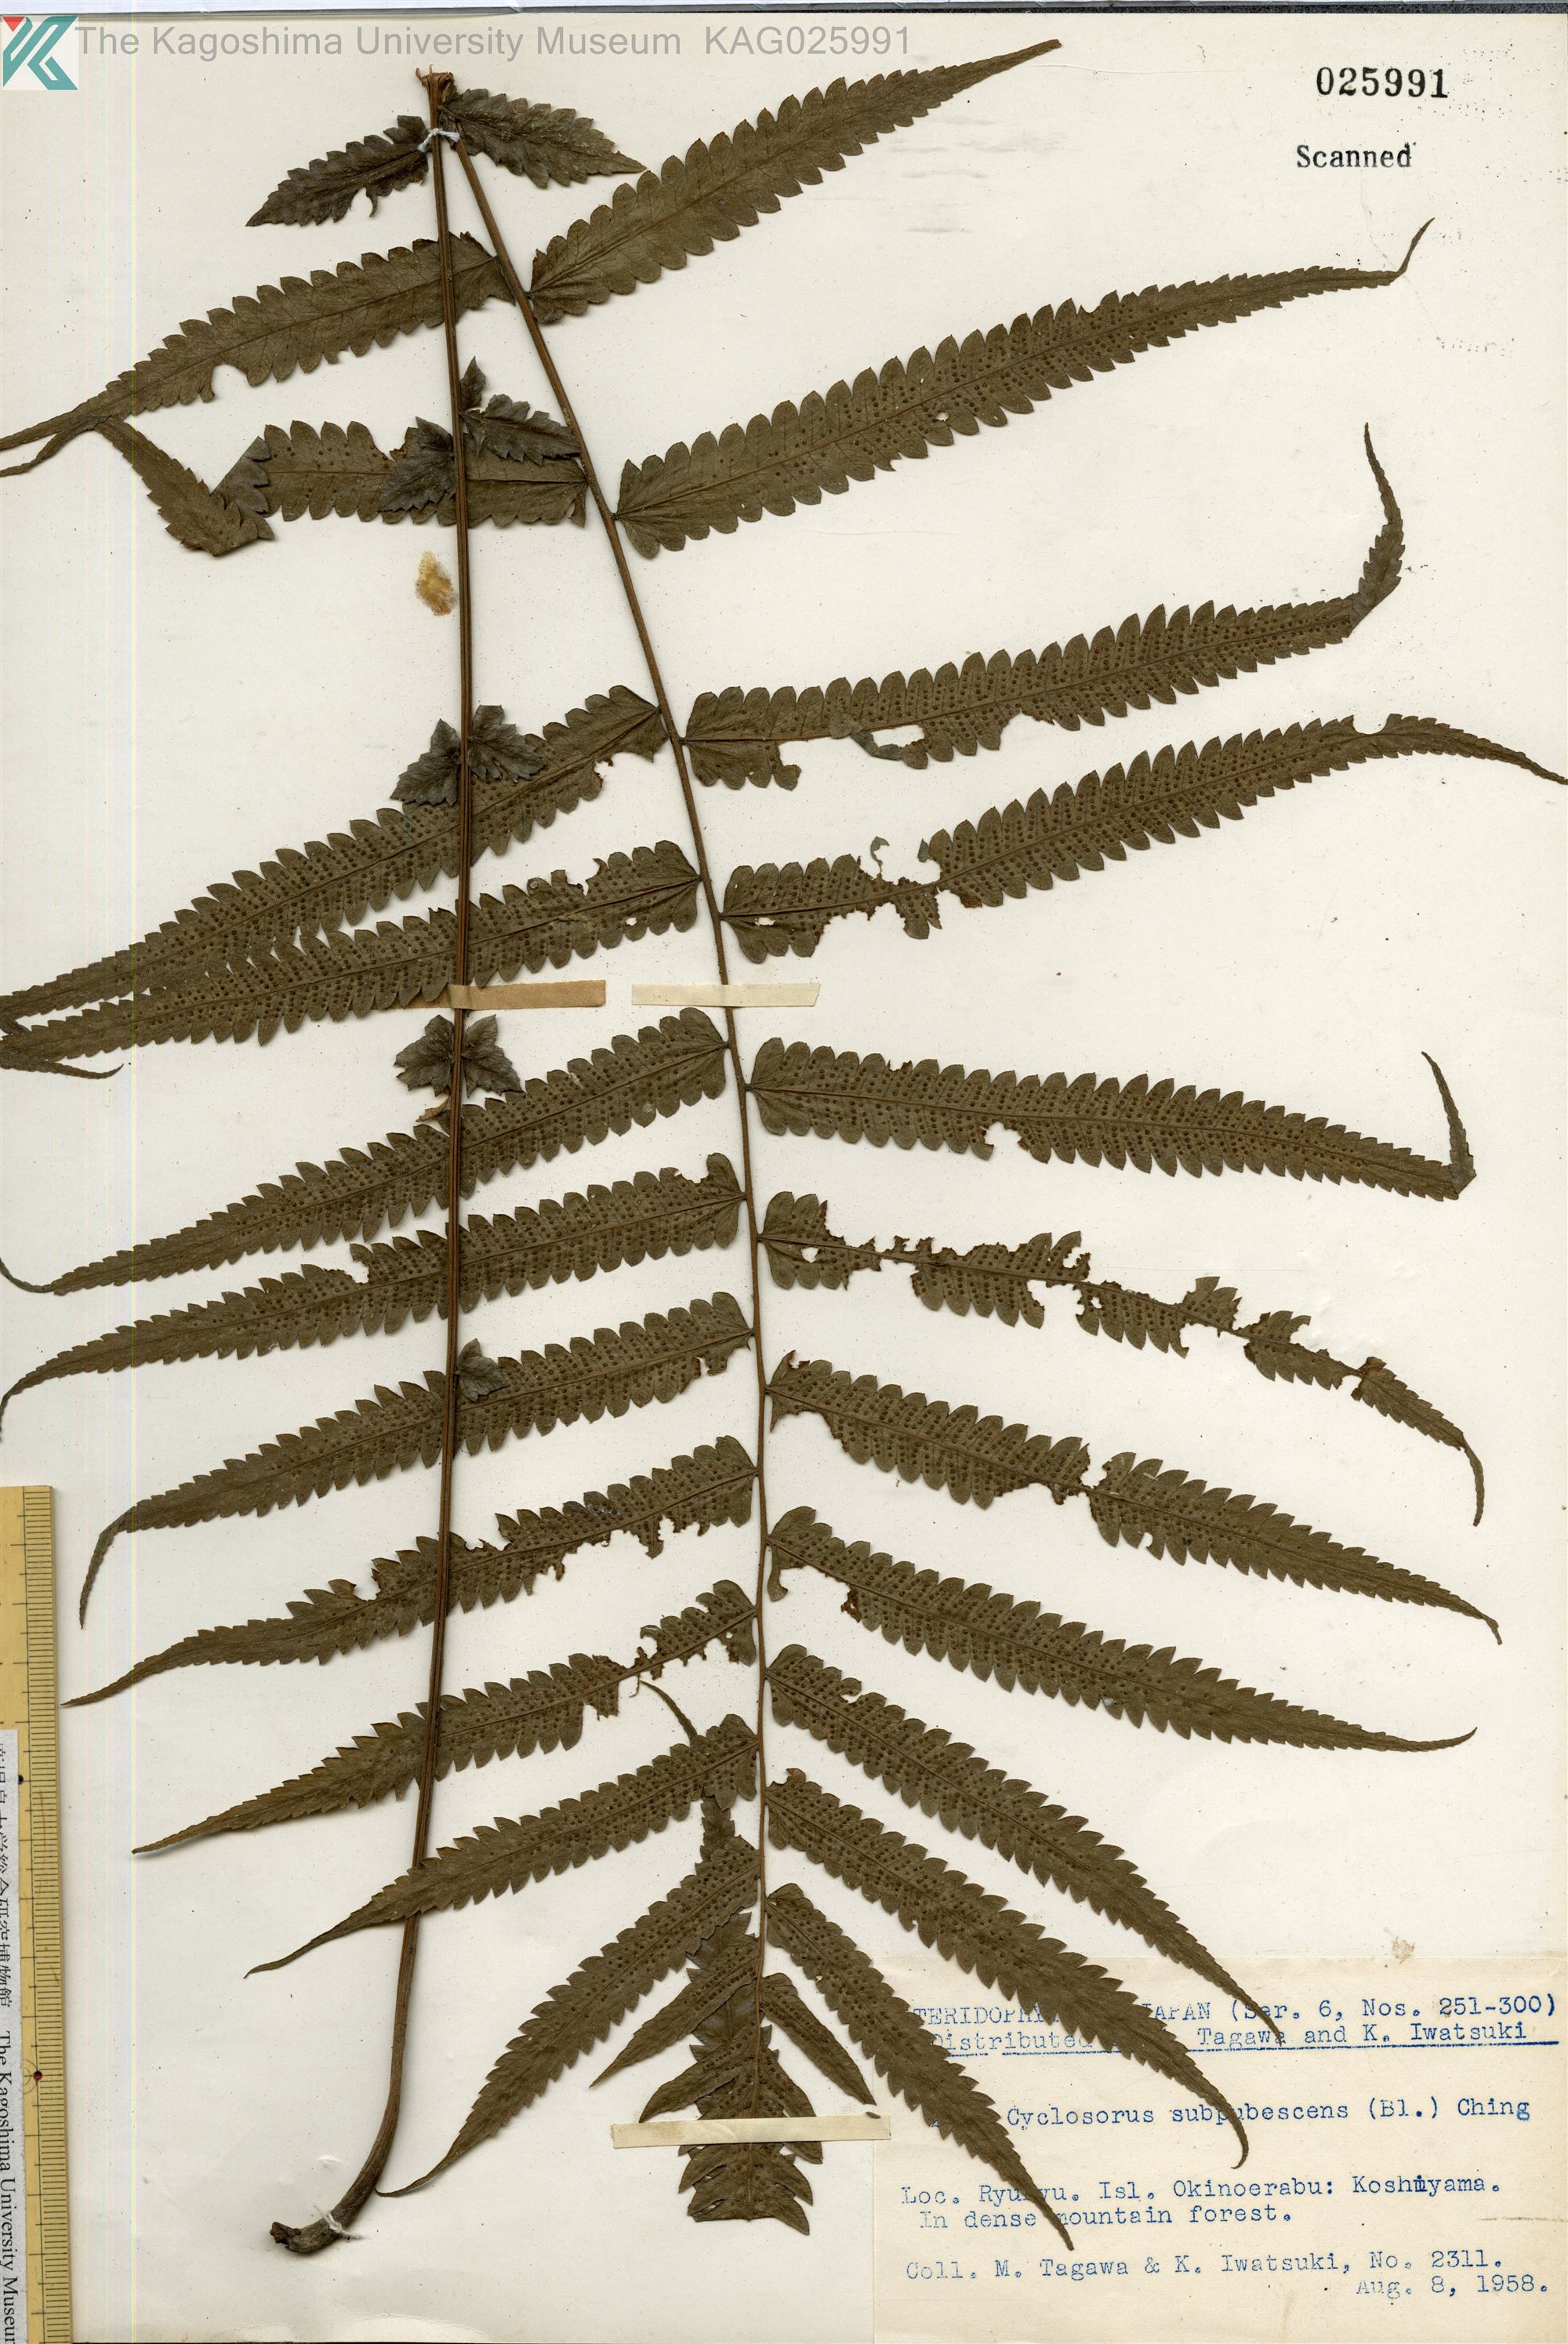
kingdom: Plantae
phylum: Tracheophyta
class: Polypodiopsida
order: Polypodiales
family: Thelypteridaceae
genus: Christella
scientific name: Christella jaculosa
